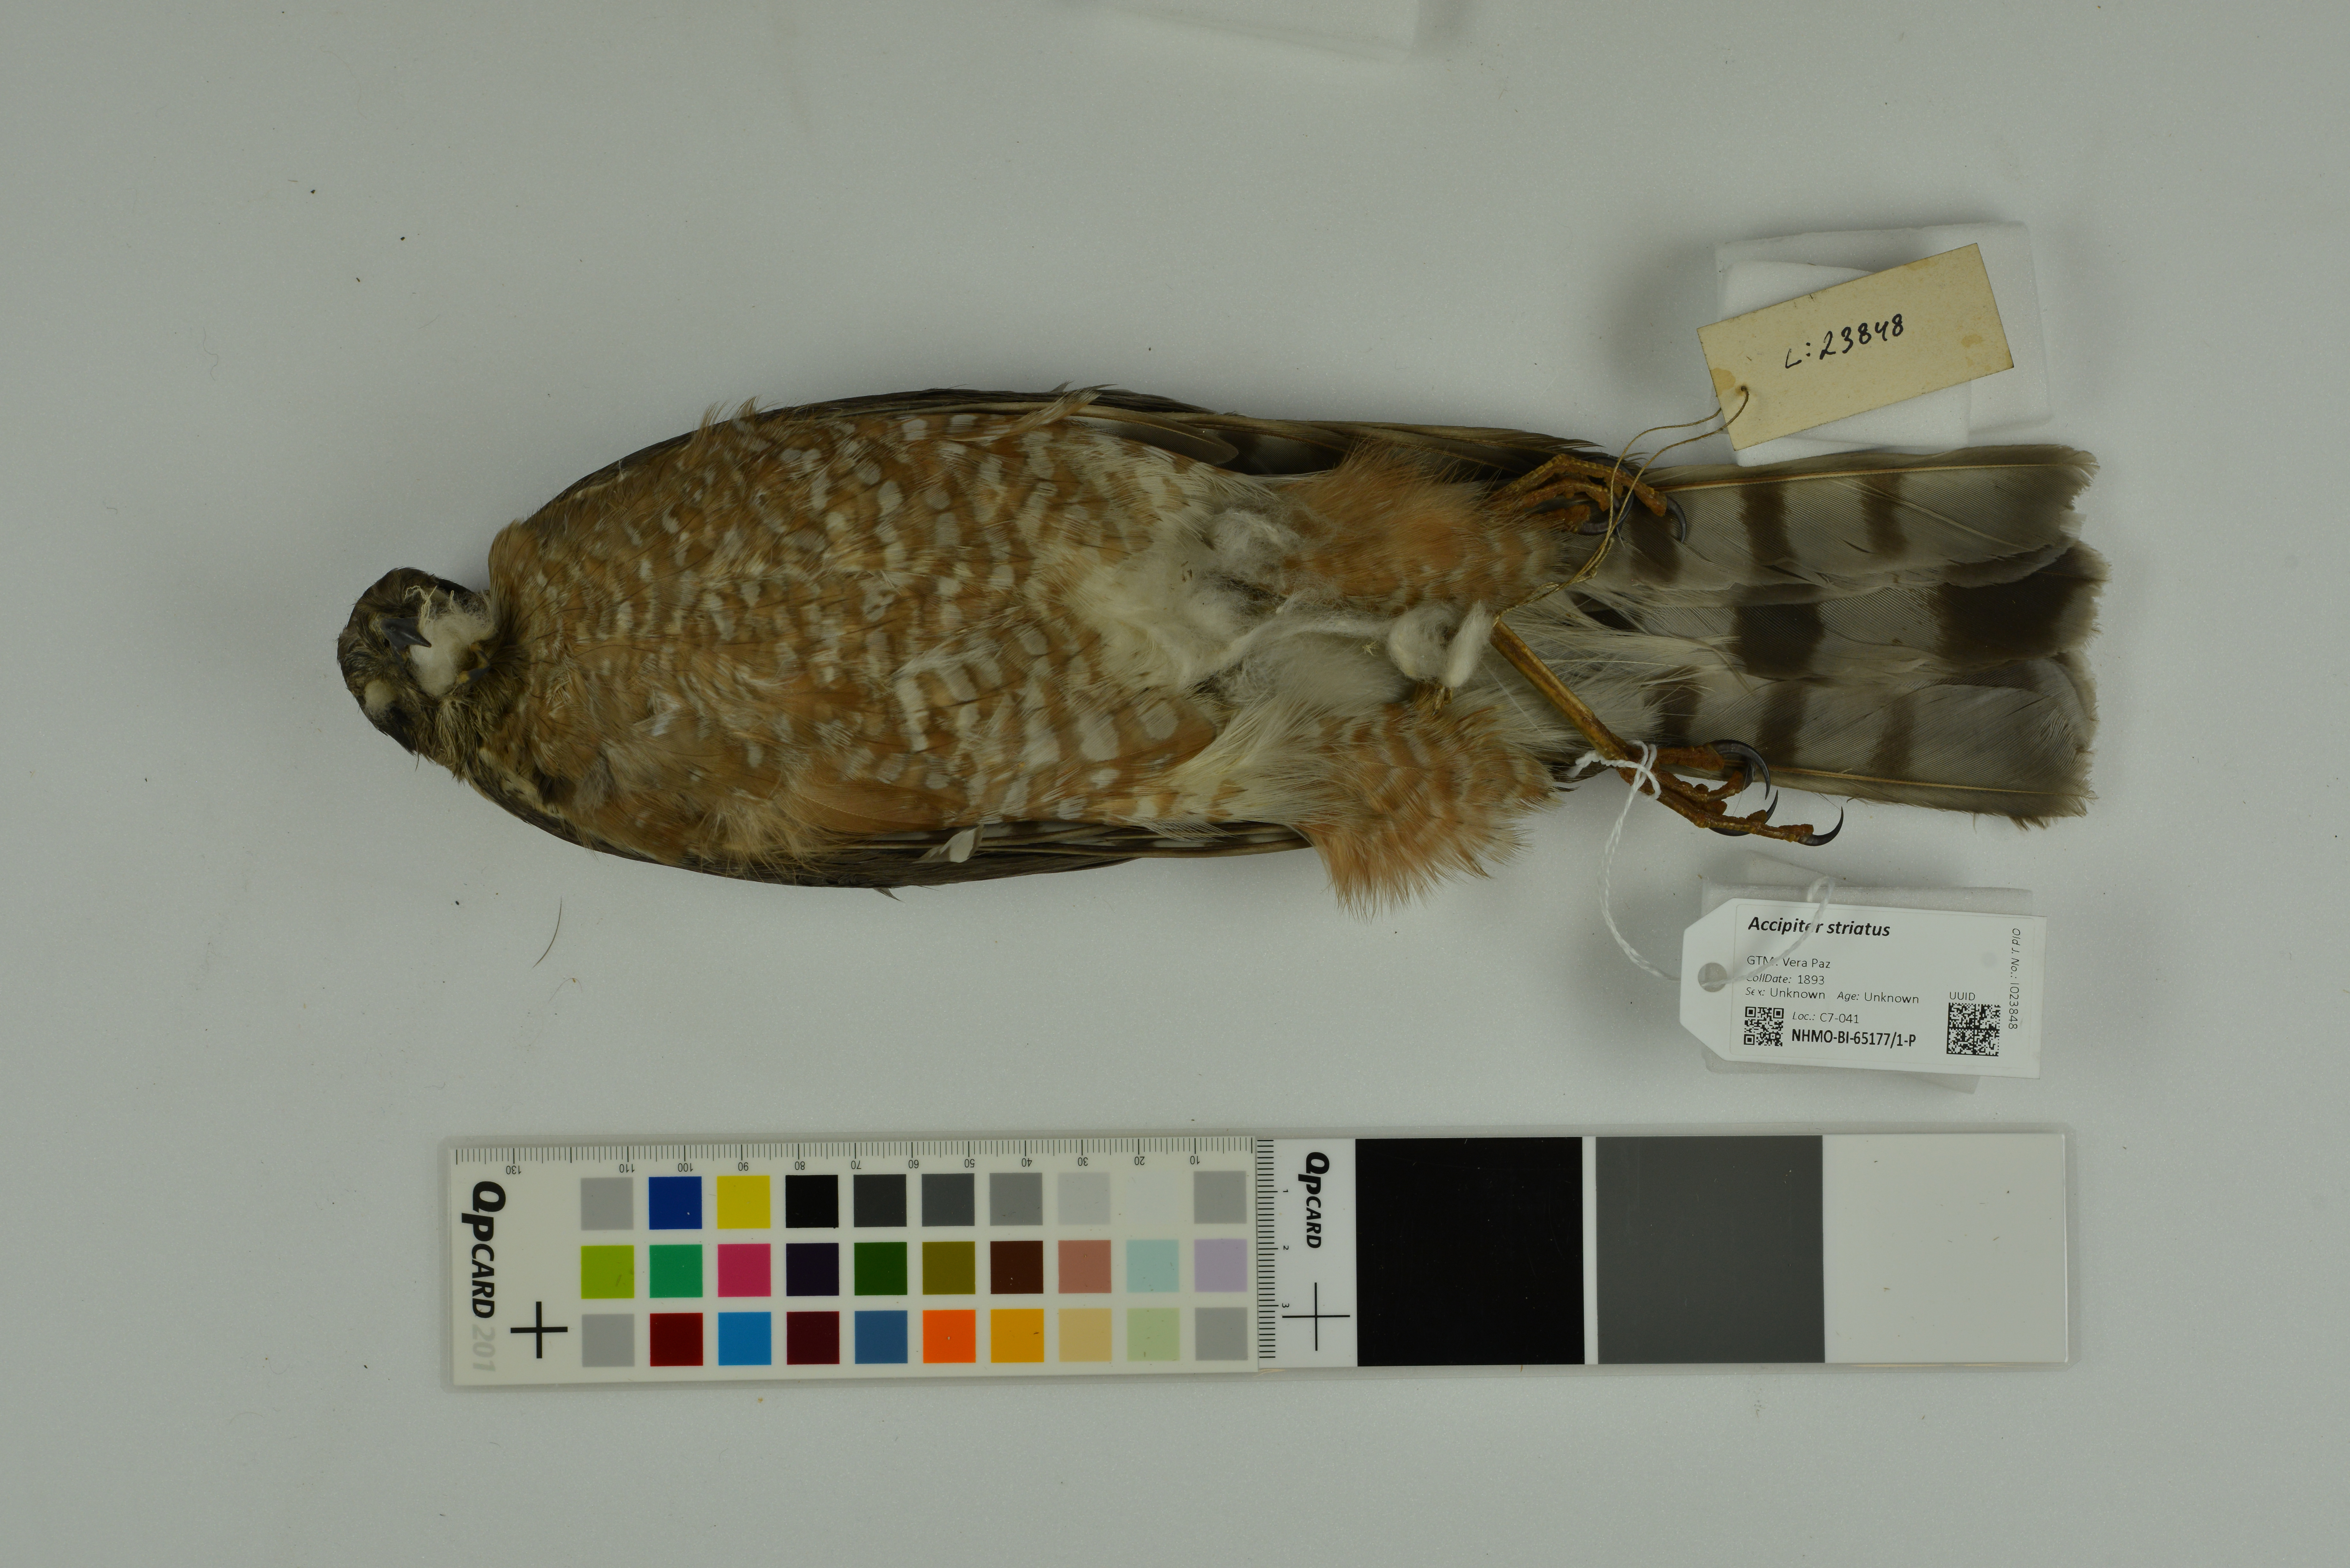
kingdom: Animalia
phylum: Chordata
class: Aves
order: Accipitriformes
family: Accipitridae
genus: Accipiter
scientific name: Accipiter striatus
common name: Sharp-shinned hawk
